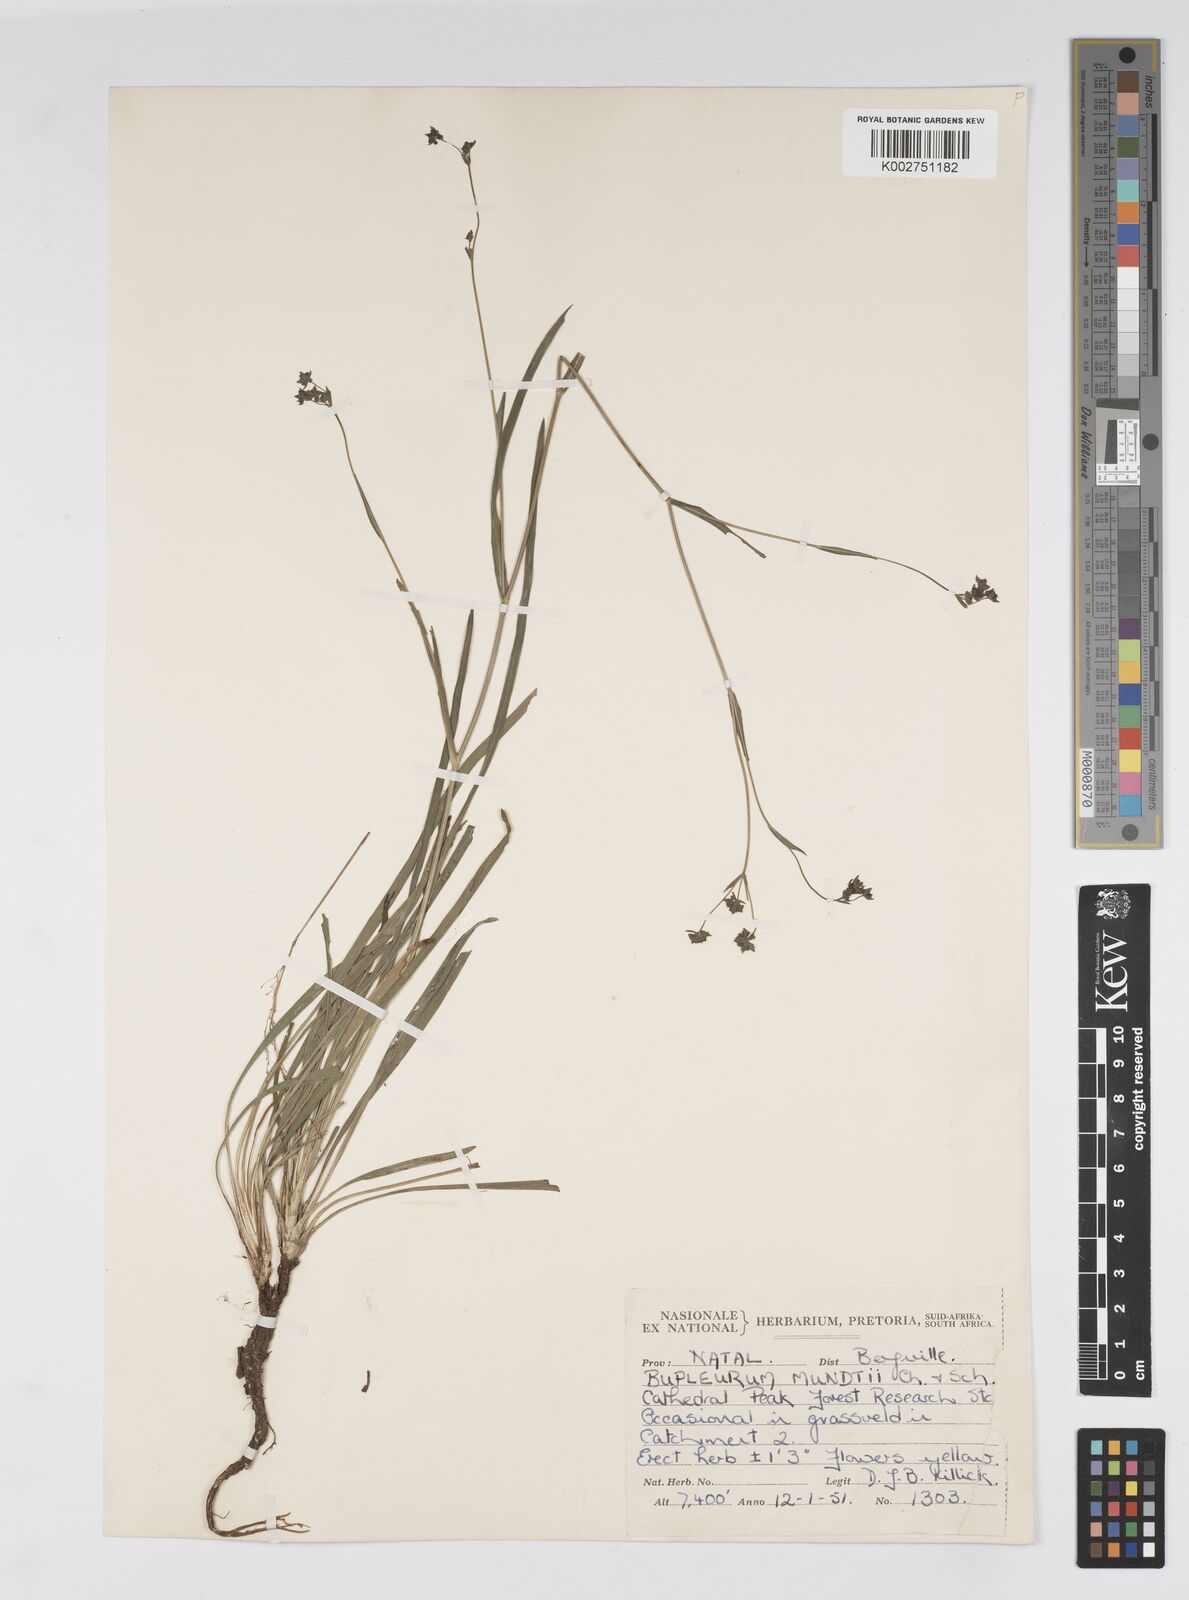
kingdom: Plantae
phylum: Tracheophyta
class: Magnoliopsida
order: Apiales
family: Apiaceae
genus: Bupleurum
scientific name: Bupleurum mundii
